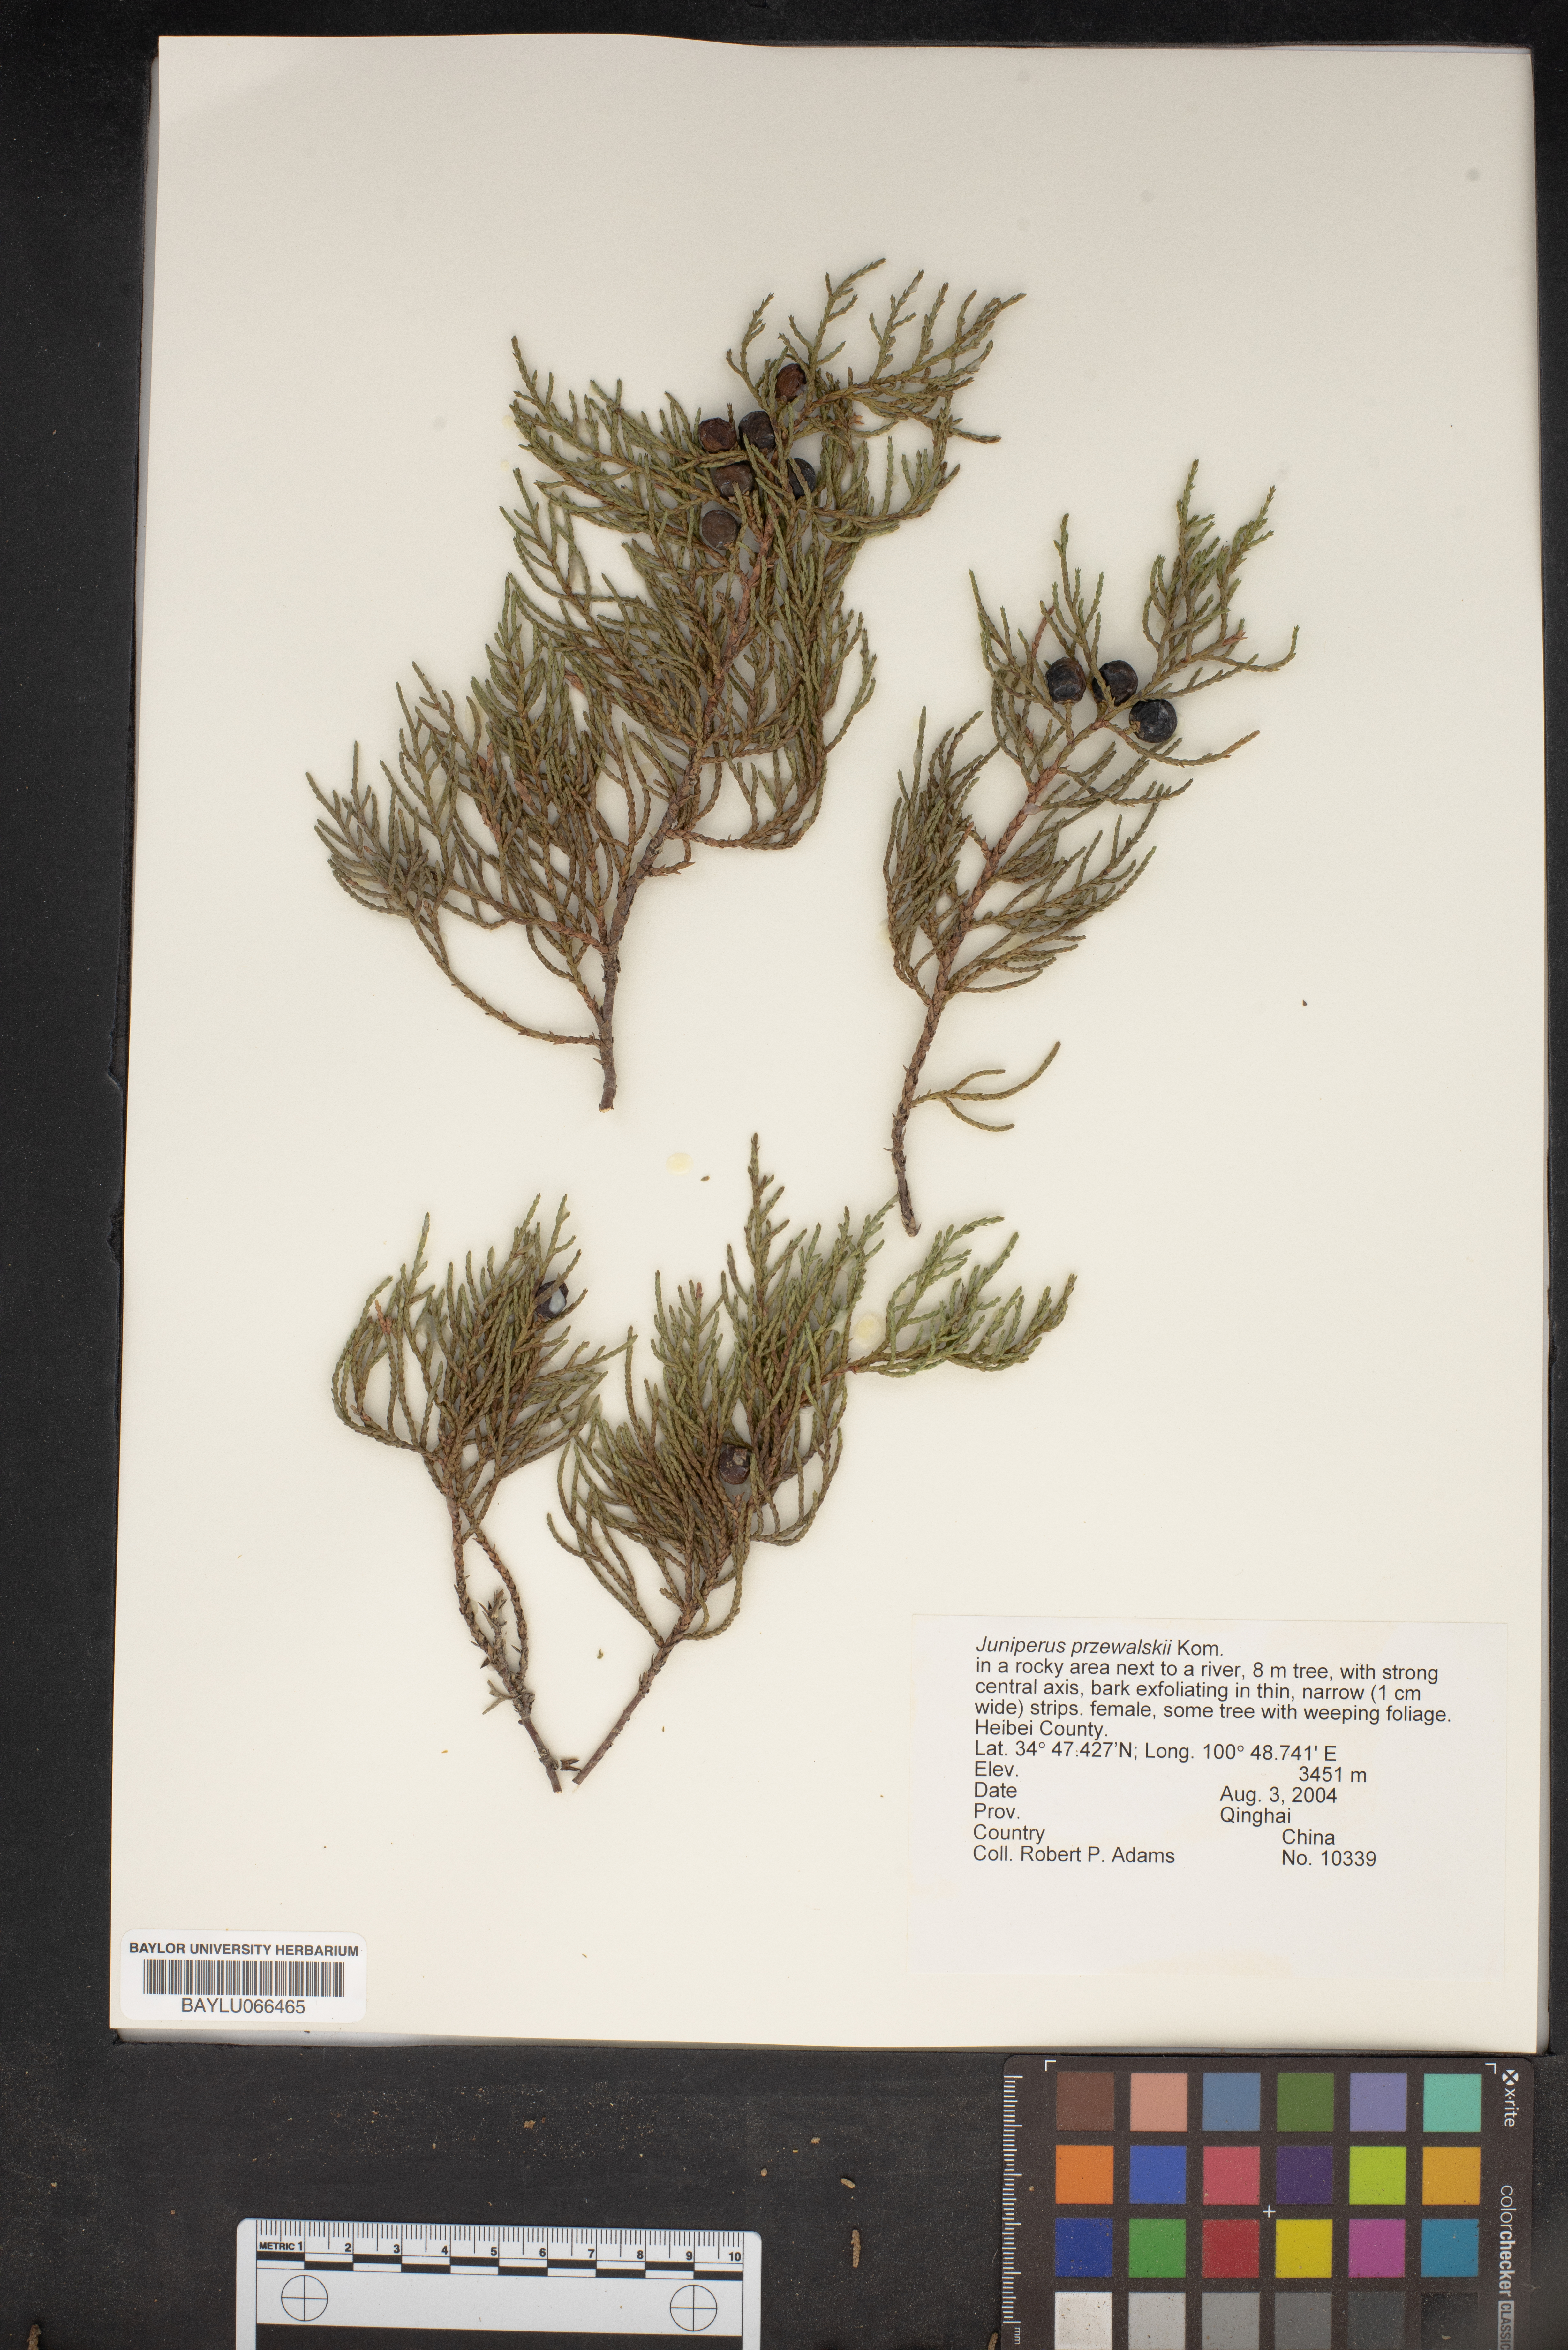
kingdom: Plantae
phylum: Tracheophyta
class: Pinopsida
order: Pinales
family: Cupressaceae
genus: Juniperus
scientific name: Juniperus przewalskii
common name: Przewalsi juniper
